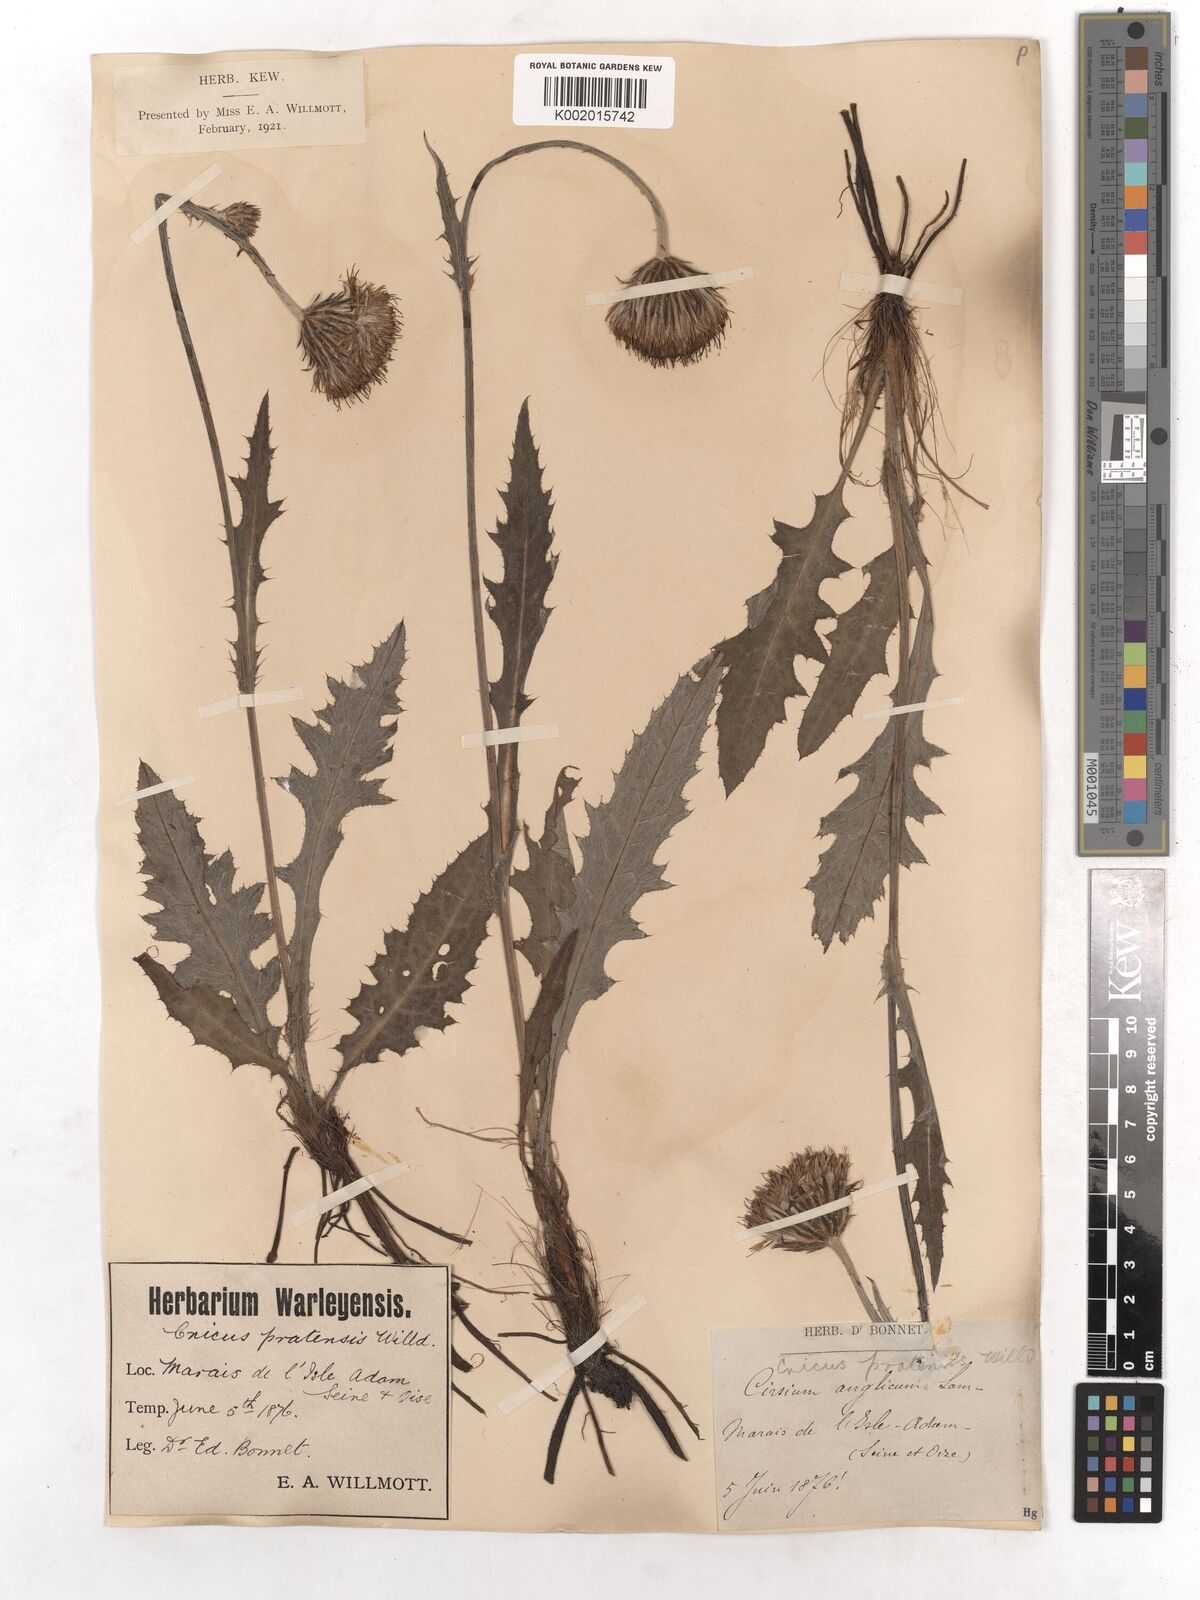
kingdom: Plantae
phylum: Tracheophyta
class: Magnoliopsida
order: Asterales
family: Asteraceae
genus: Cirsium
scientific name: Cirsium dissectum
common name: Meadow thistle
